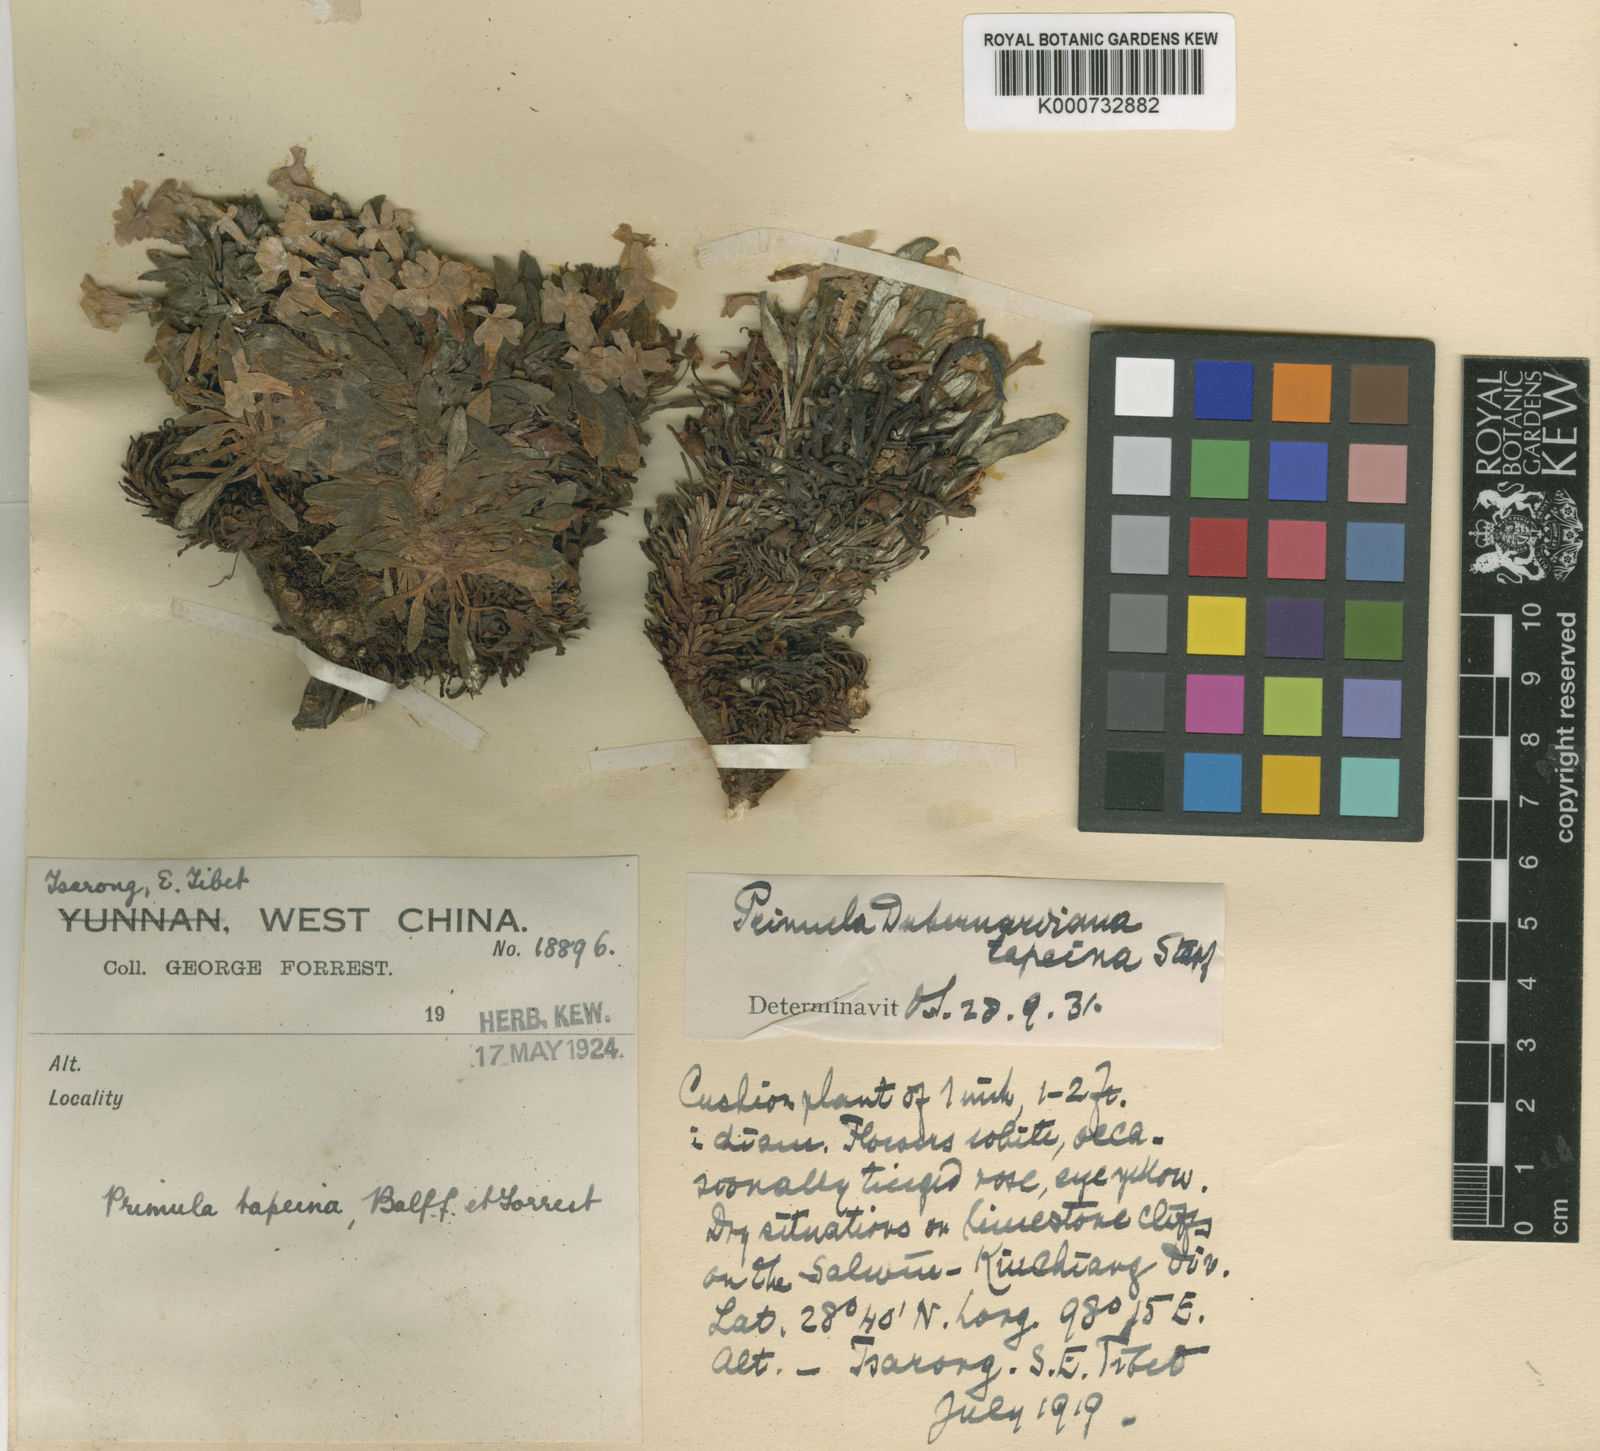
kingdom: Plantae
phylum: Tracheophyta
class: Magnoliopsida
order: Ericales
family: Primulaceae
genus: Primula
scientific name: Primula henrici
